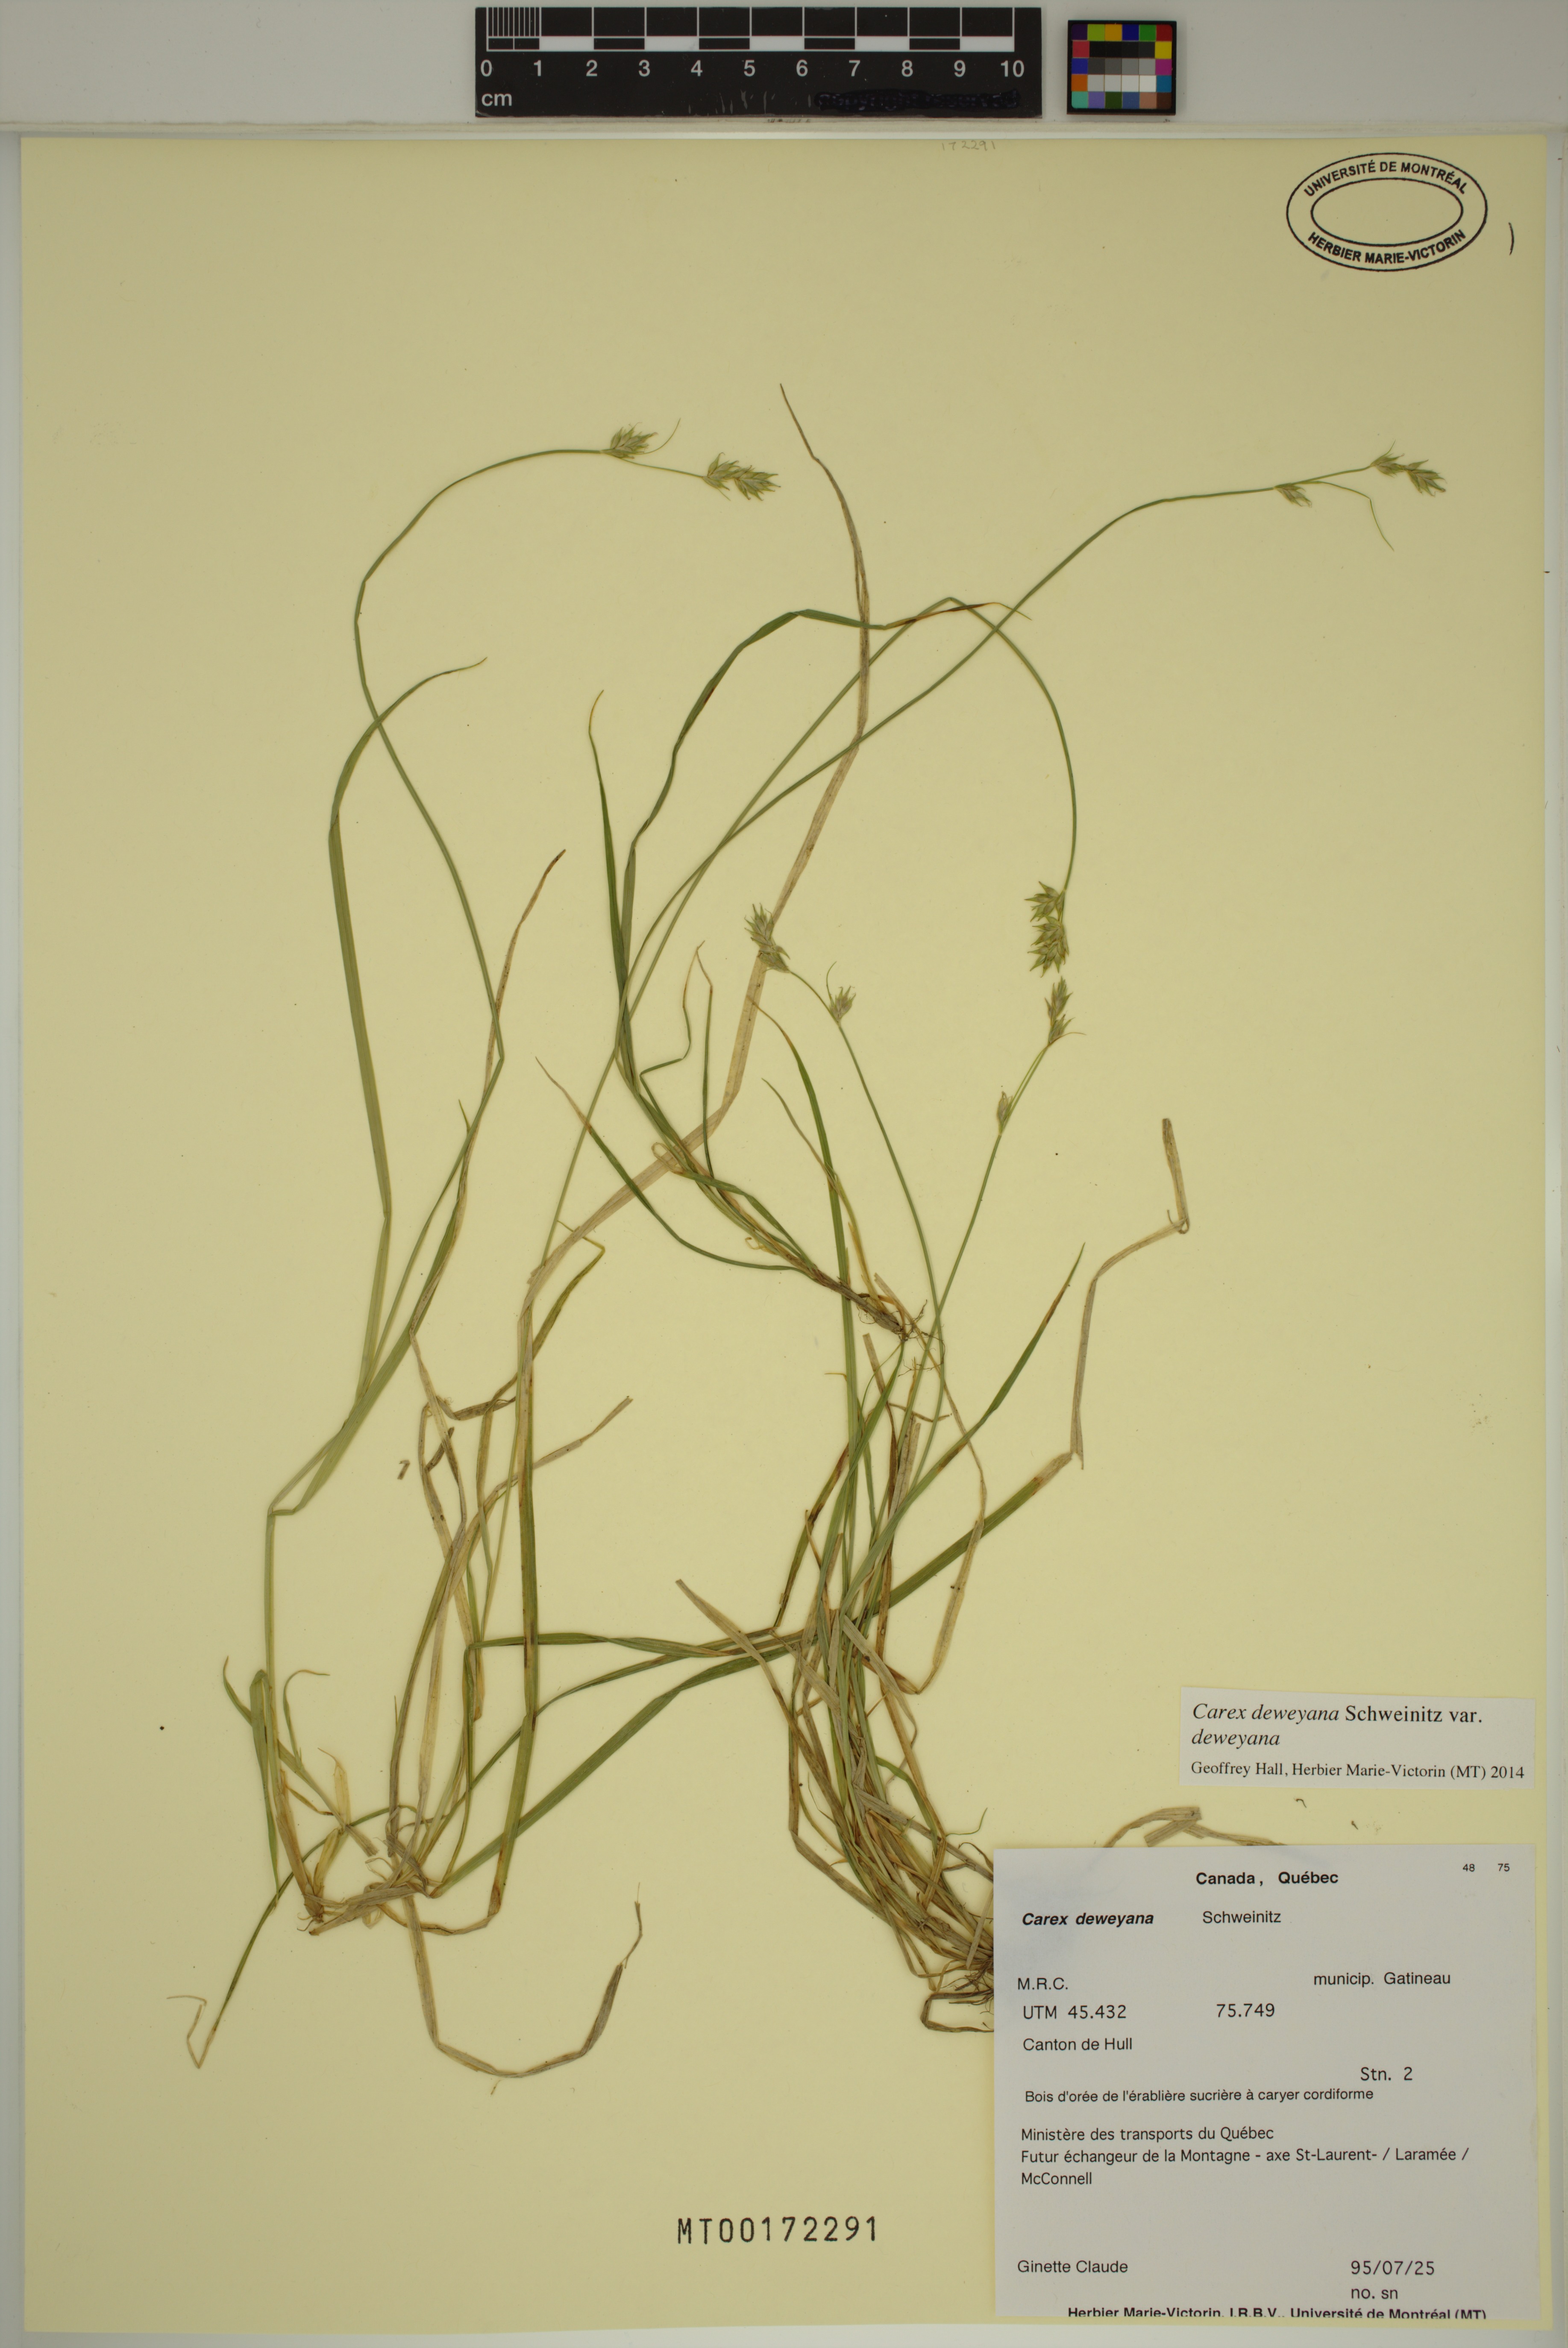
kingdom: Plantae
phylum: Tracheophyta
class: Liliopsida
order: Poales
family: Cyperaceae
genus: Carex
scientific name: Carex deweyana
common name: Dewey's sedge
